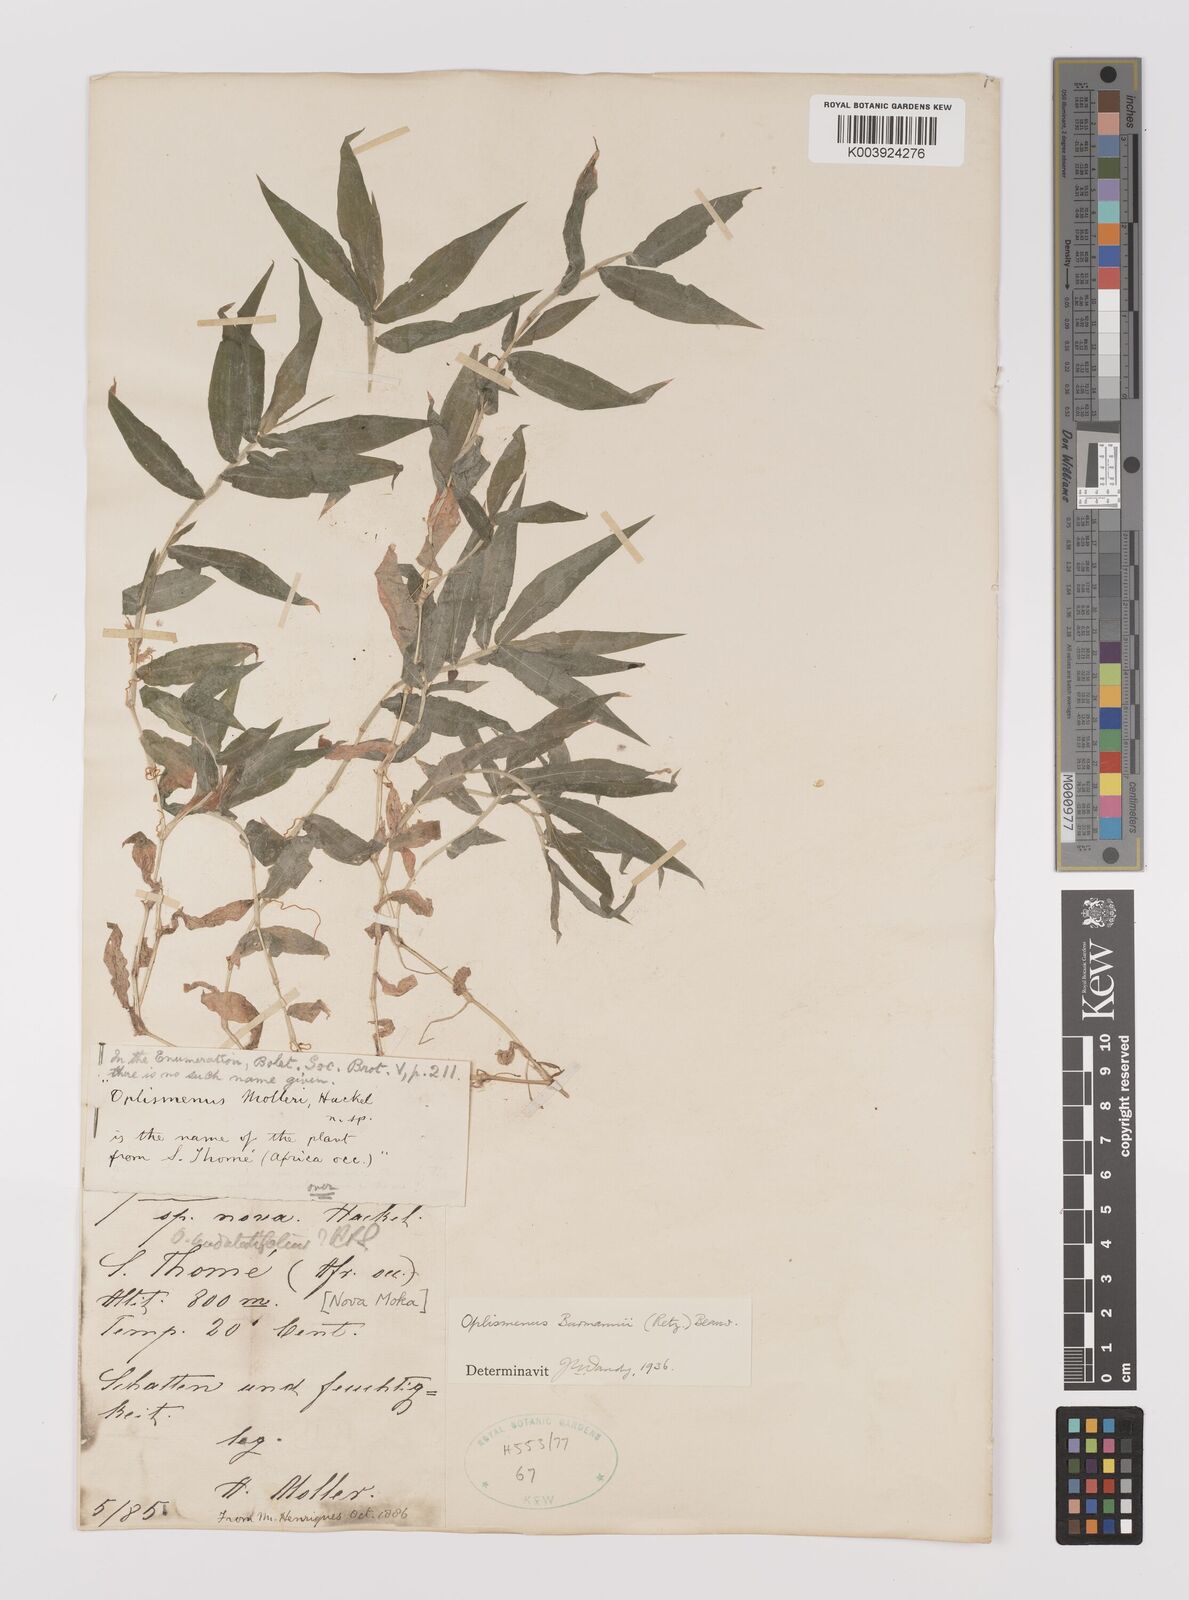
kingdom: Plantae
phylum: Tracheophyta
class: Liliopsida
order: Poales
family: Poaceae
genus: Oplismenus
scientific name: Oplismenus burmanni
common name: Burmann's basketgrass
